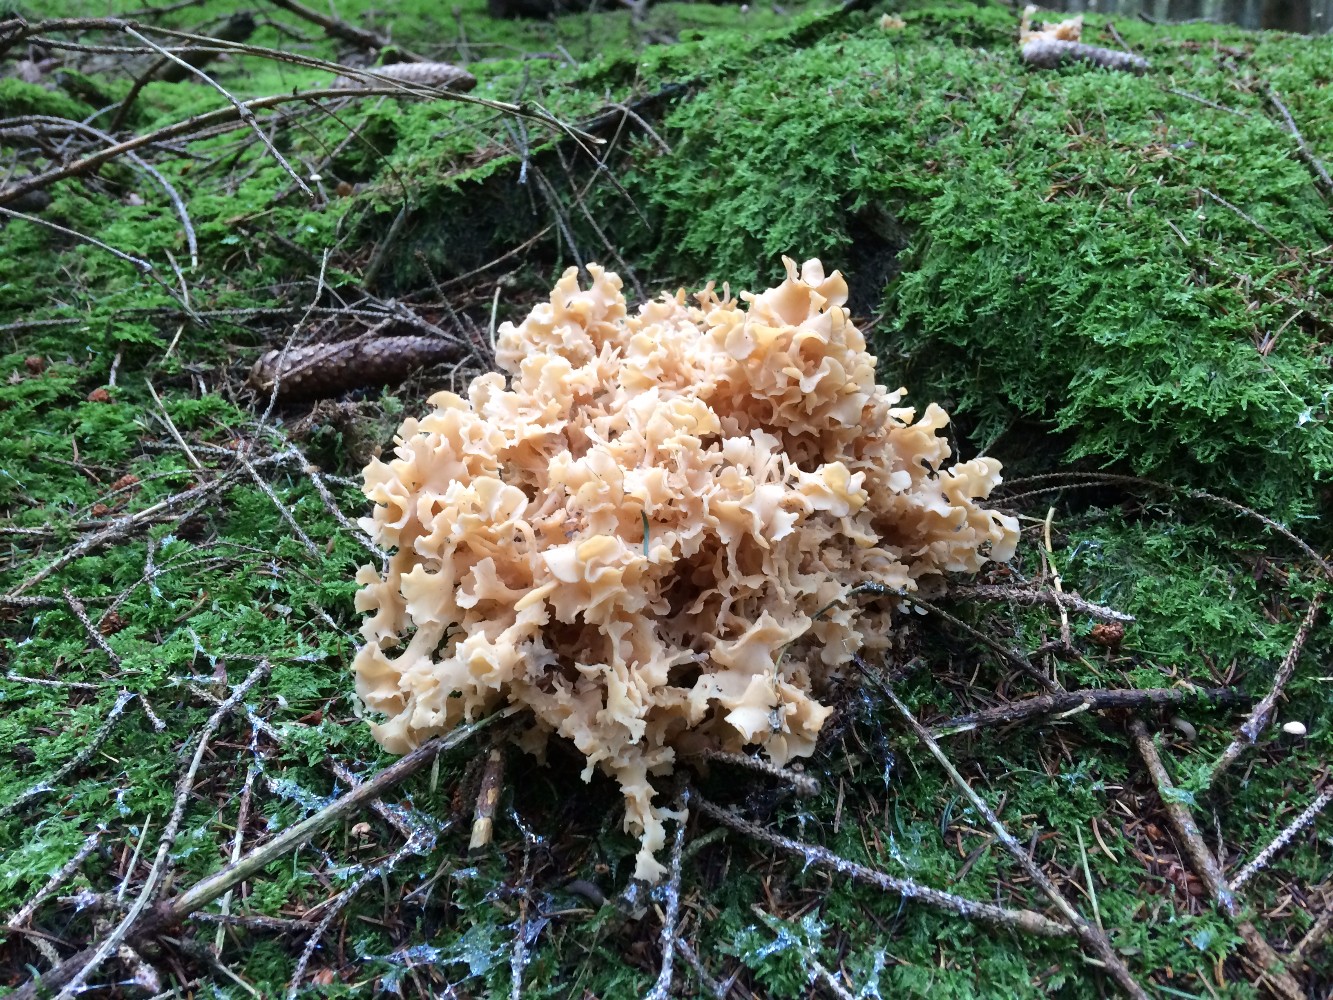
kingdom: Fungi
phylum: Basidiomycota
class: Agaricomycetes
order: Polyporales
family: Sparassidaceae
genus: Sparassis
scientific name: Sparassis crispa
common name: kruset blomkålssvamp
